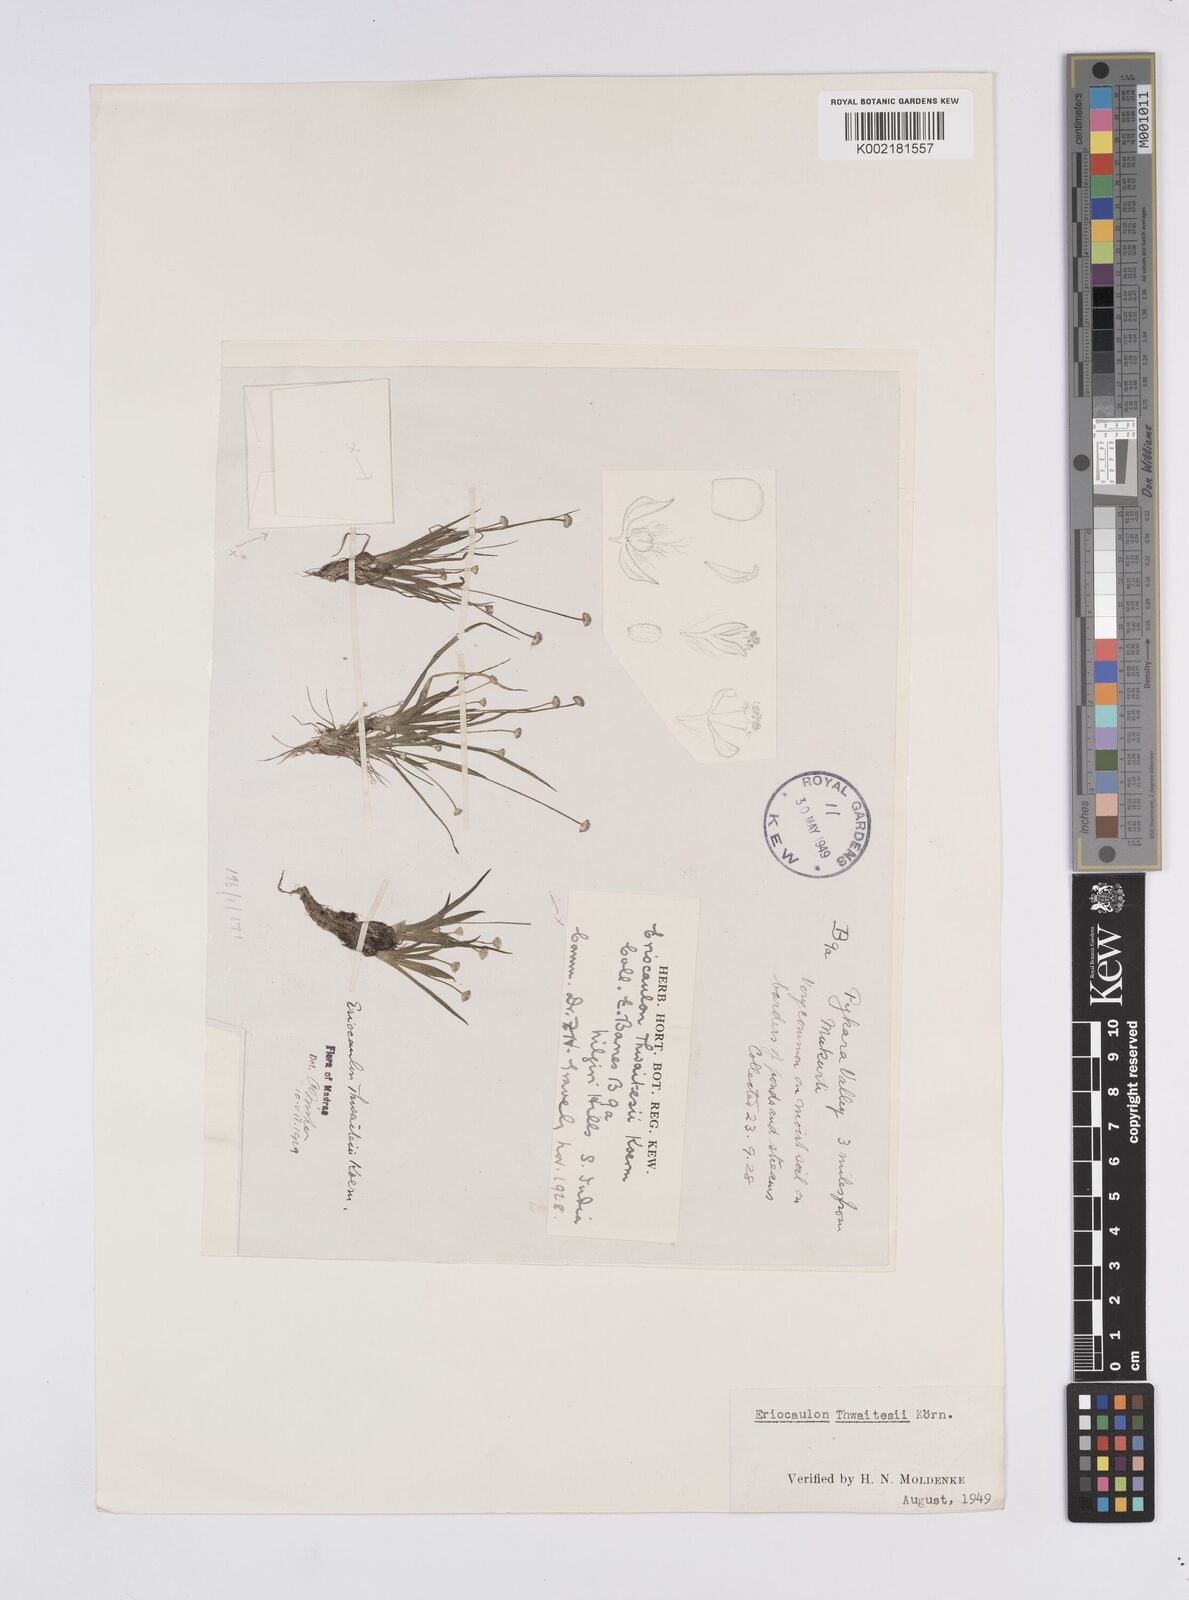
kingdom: Plantae
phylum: Tracheophyta
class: Liliopsida
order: Poales
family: Eriocaulaceae
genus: Eriocaulon
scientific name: Eriocaulon thwaitesii
